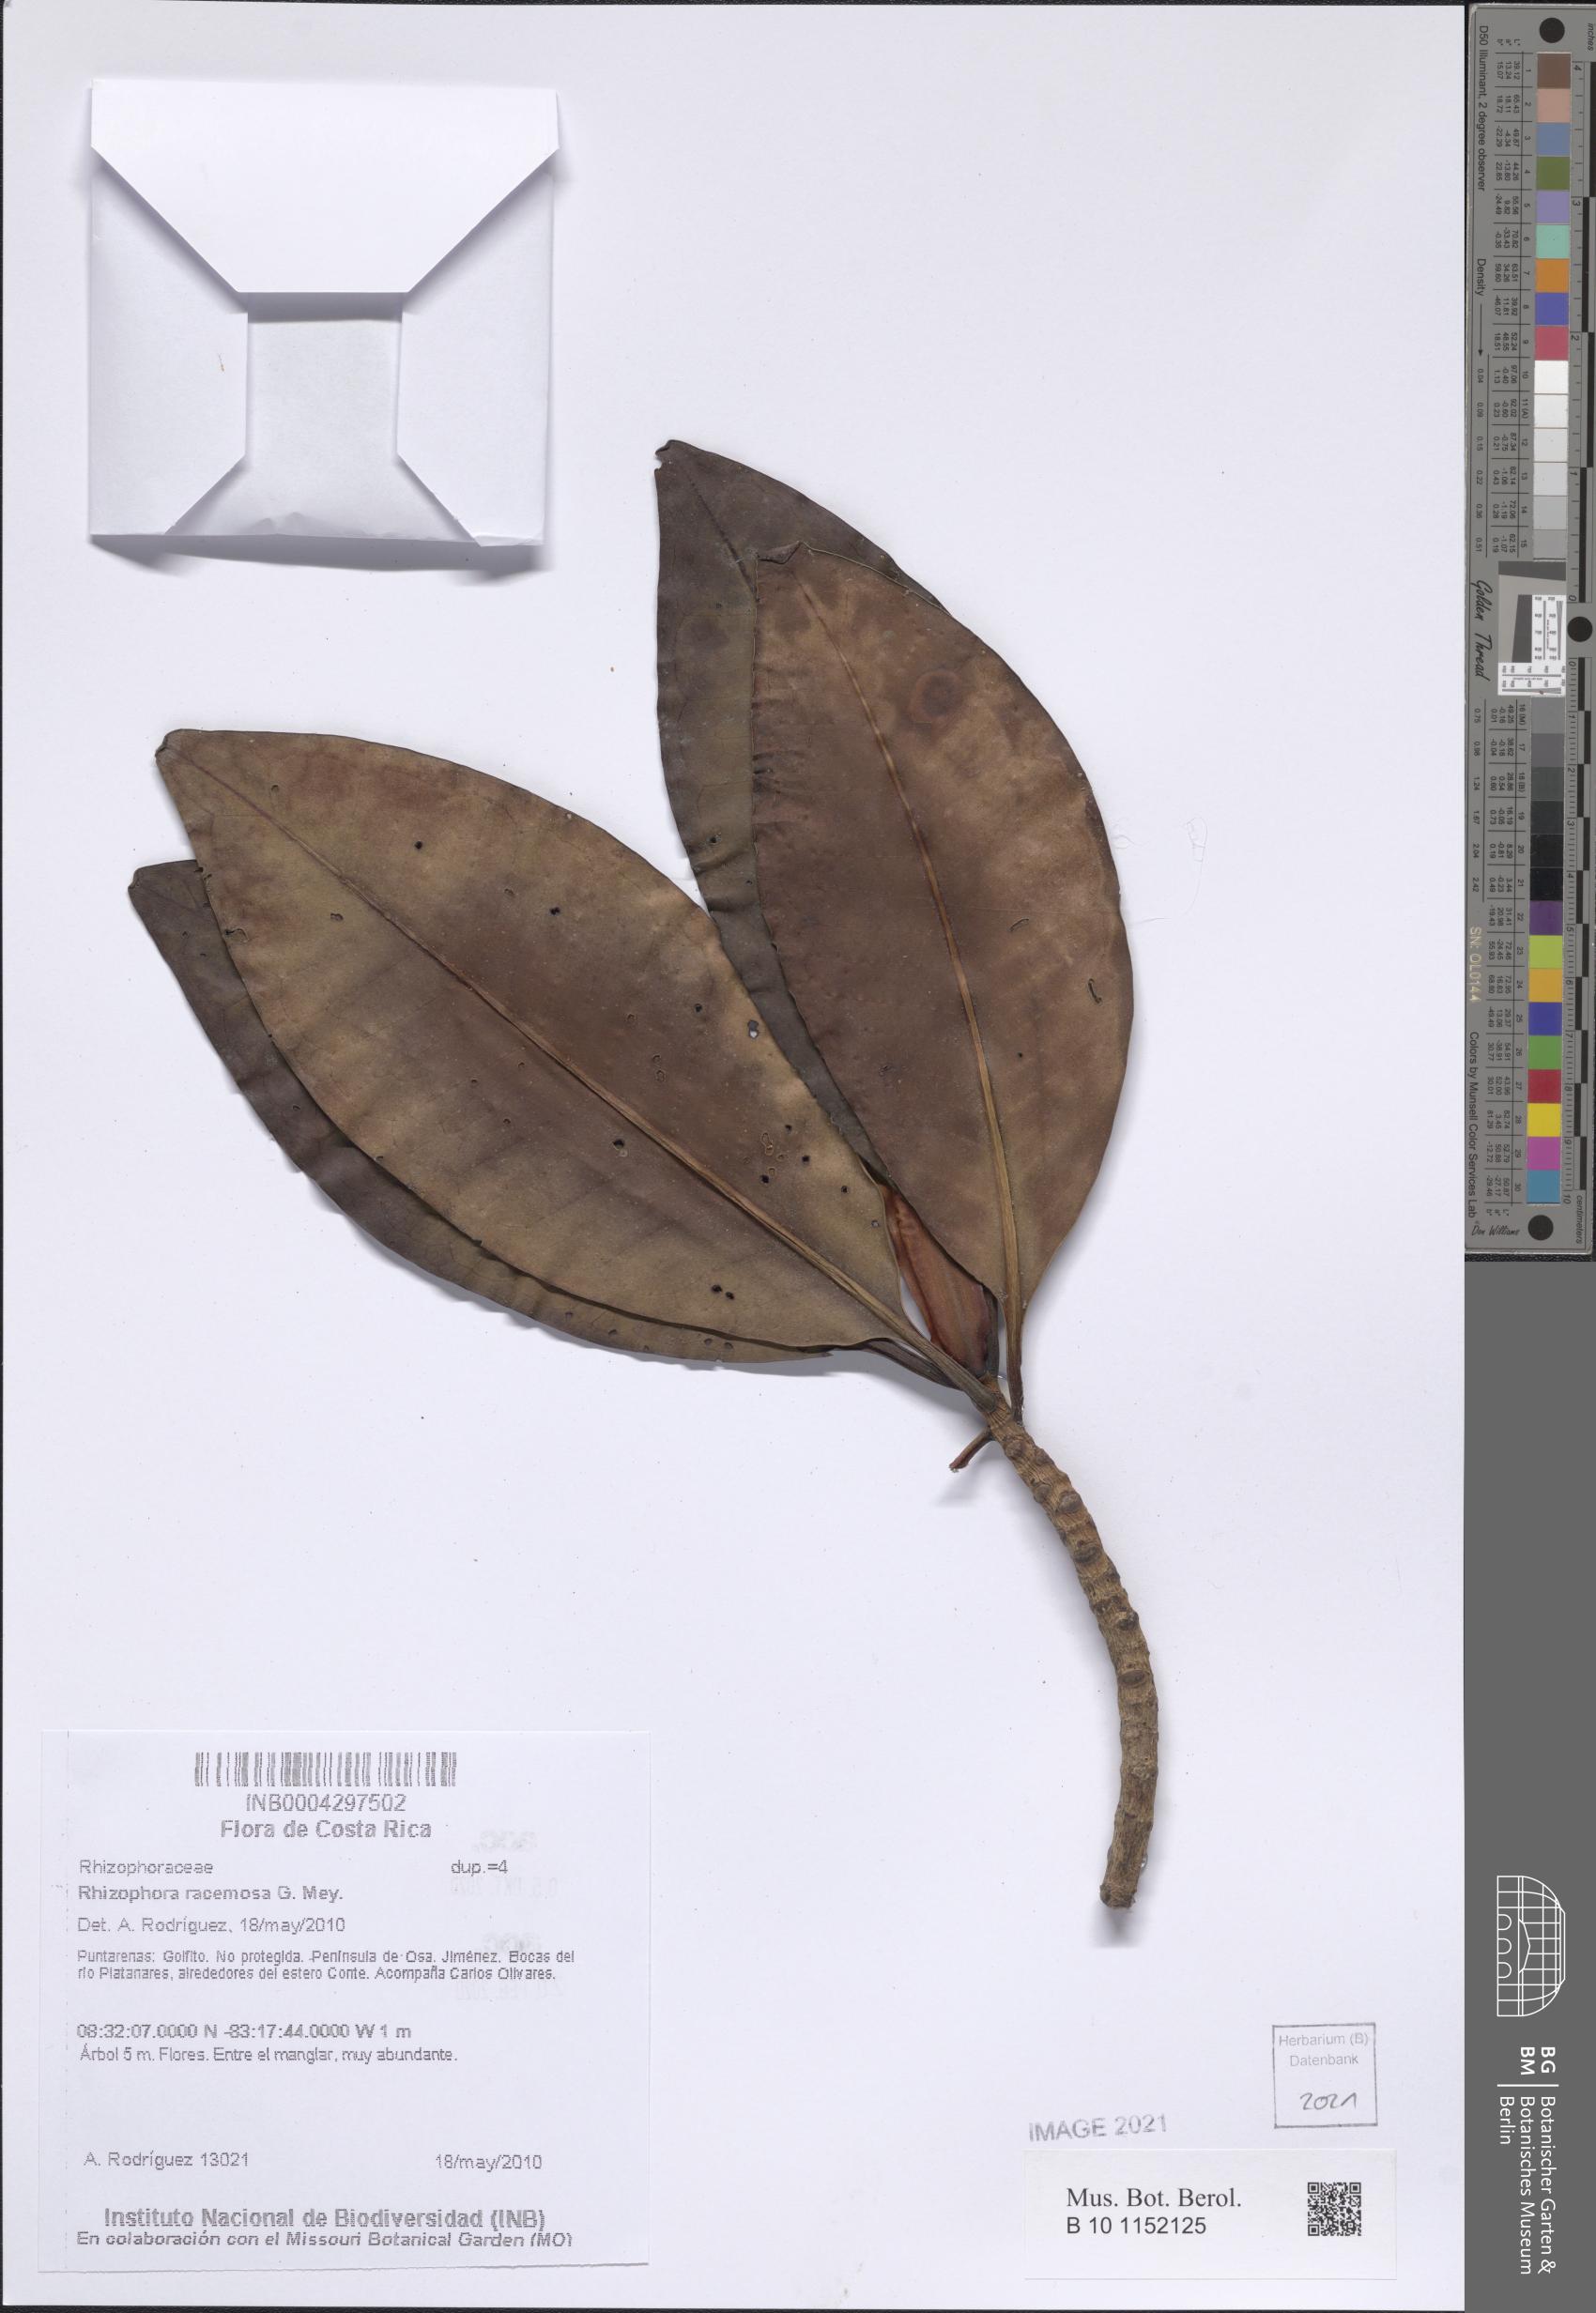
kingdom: Plantae
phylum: Tracheophyta
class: Magnoliopsida
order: Malpighiales
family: Rhizophoraceae
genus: Rhizophora
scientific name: Rhizophora mangle
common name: Red mangrove
